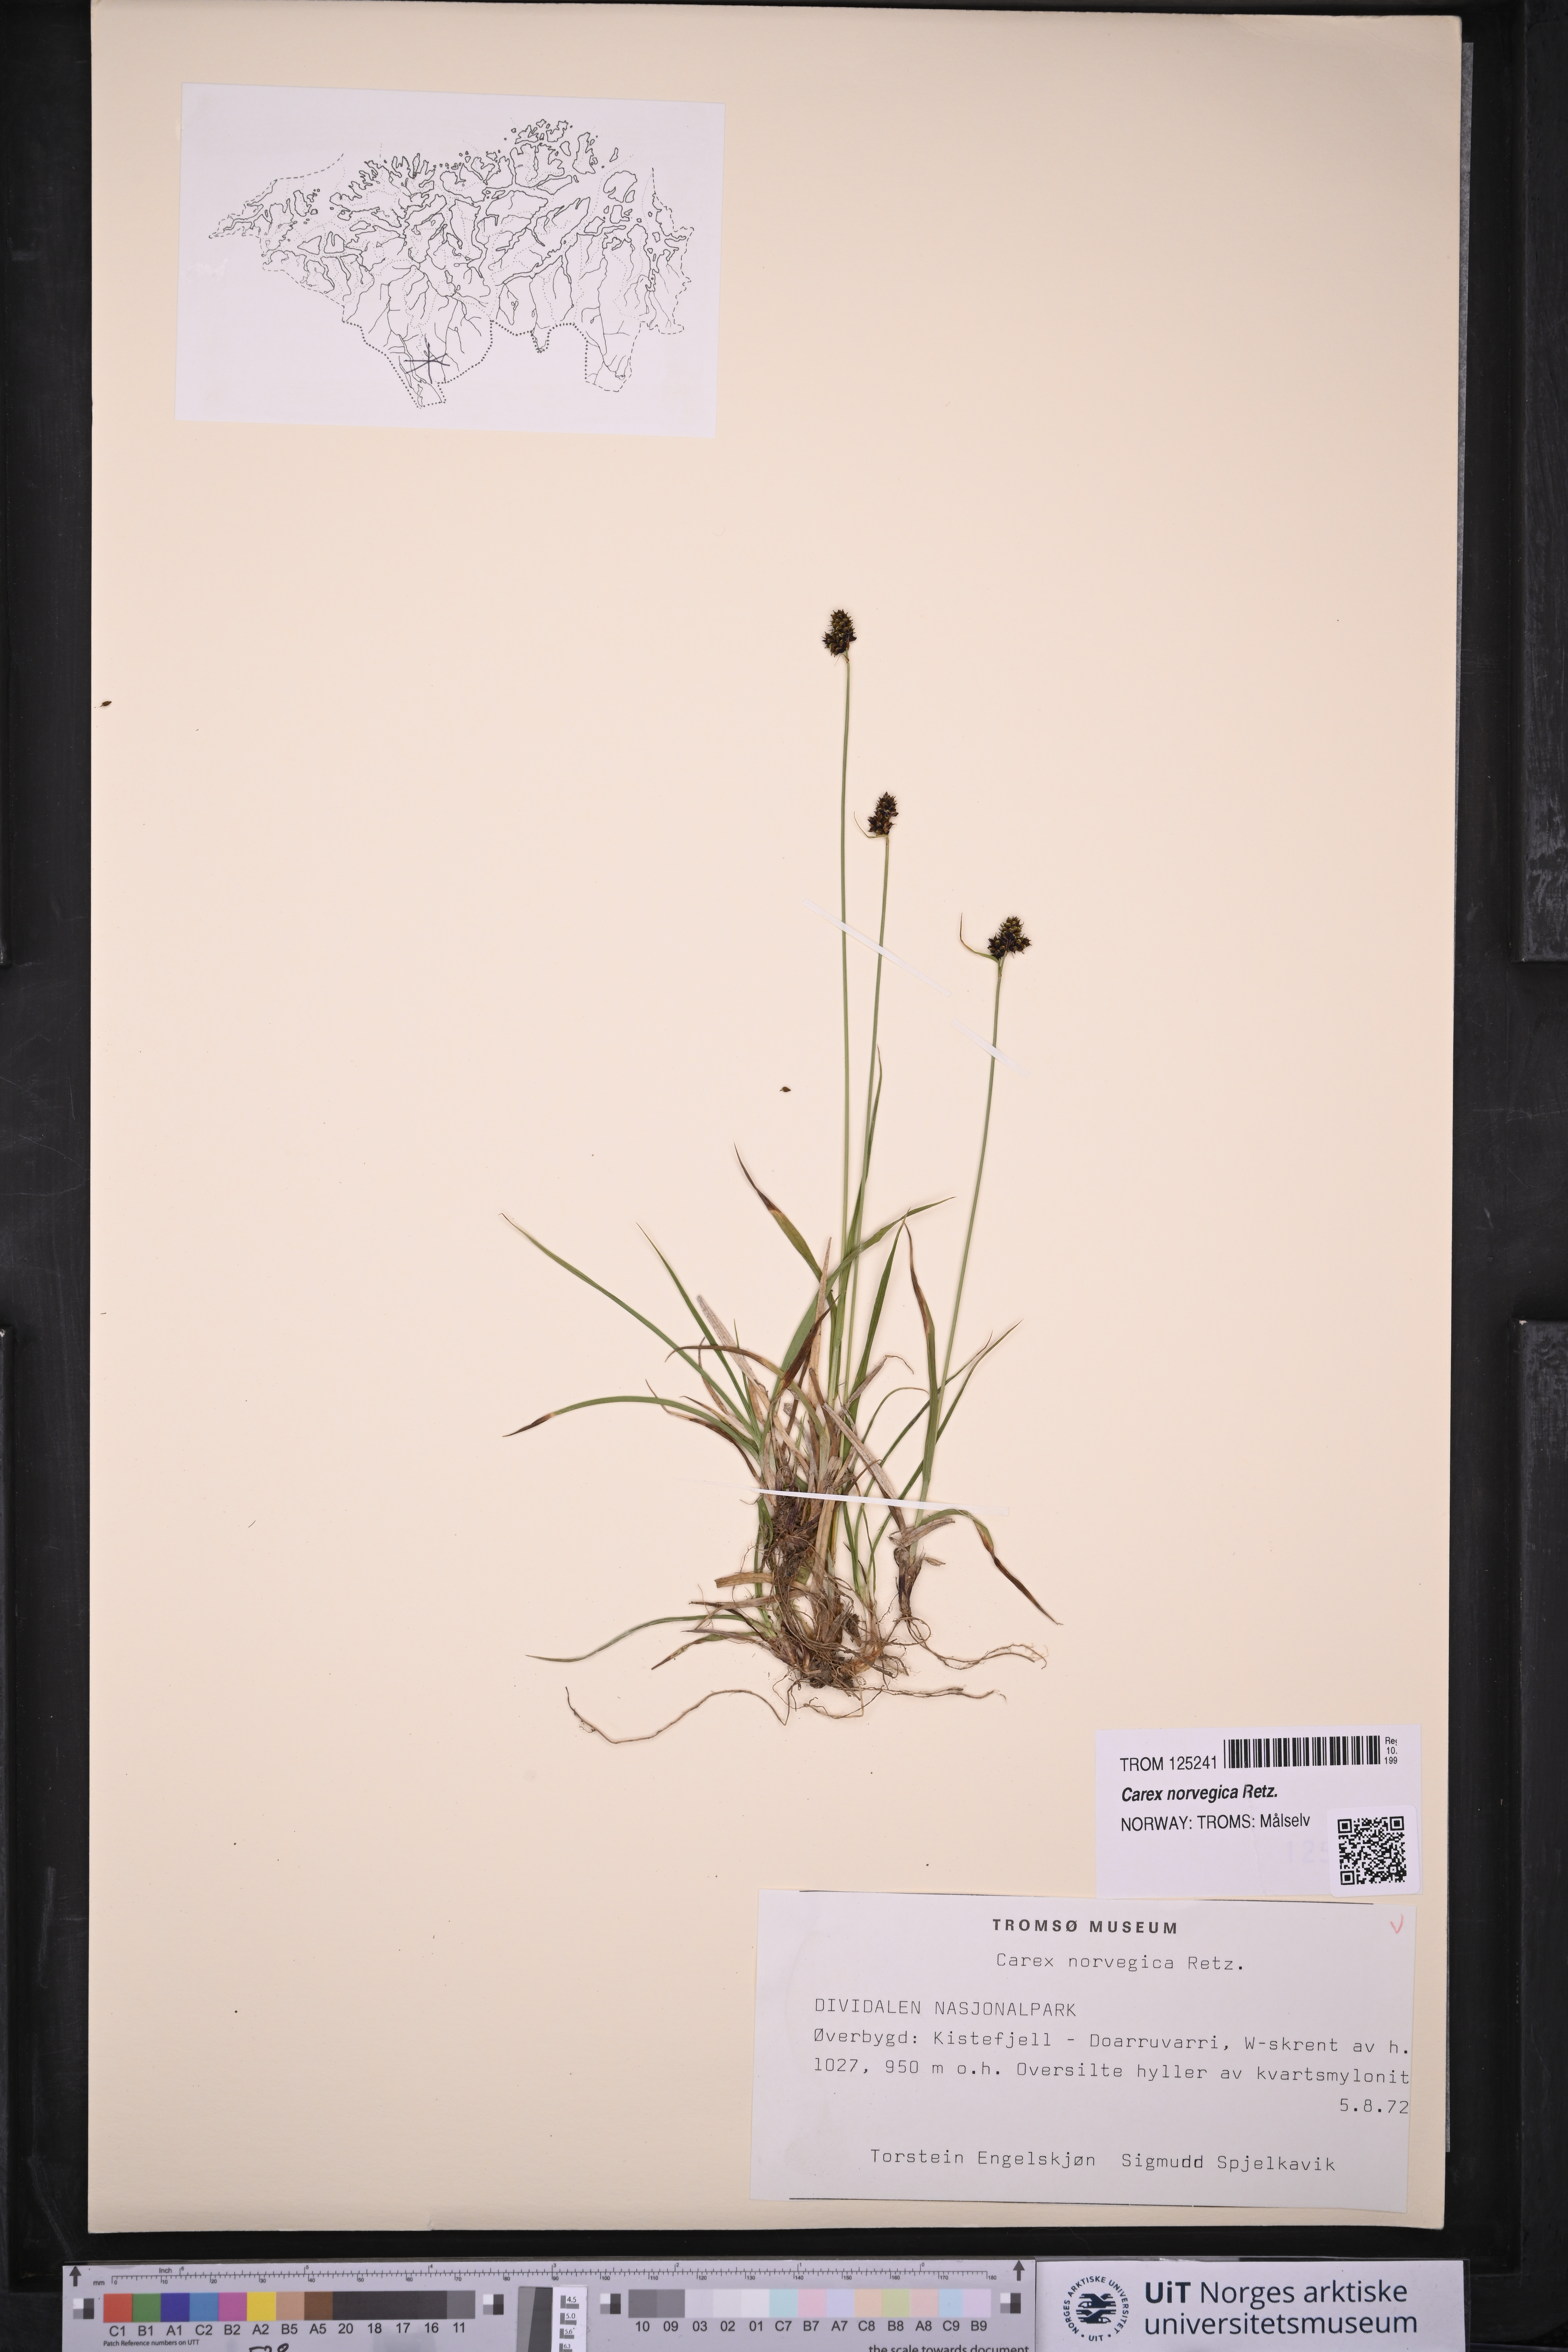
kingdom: Plantae
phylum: Tracheophyta
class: Liliopsida
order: Poales
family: Cyperaceae
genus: Carex
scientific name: Carex norvegica
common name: Close-headed alpine-sedge
